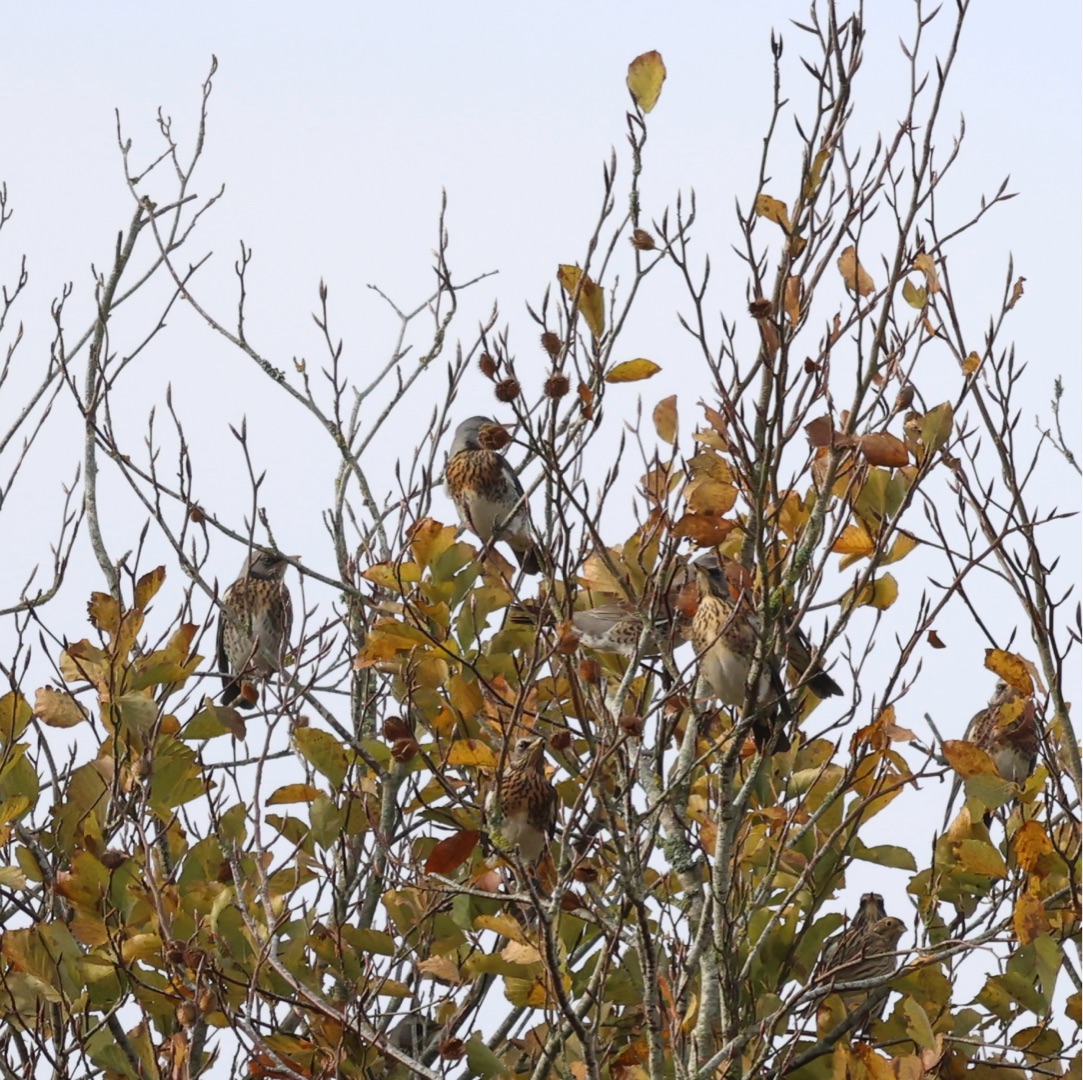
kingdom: Animalia
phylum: Chordata
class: Aves
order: Passeriformes
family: Turdidae
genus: Turdus
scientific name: Turdus pilaris
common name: Sjagger
